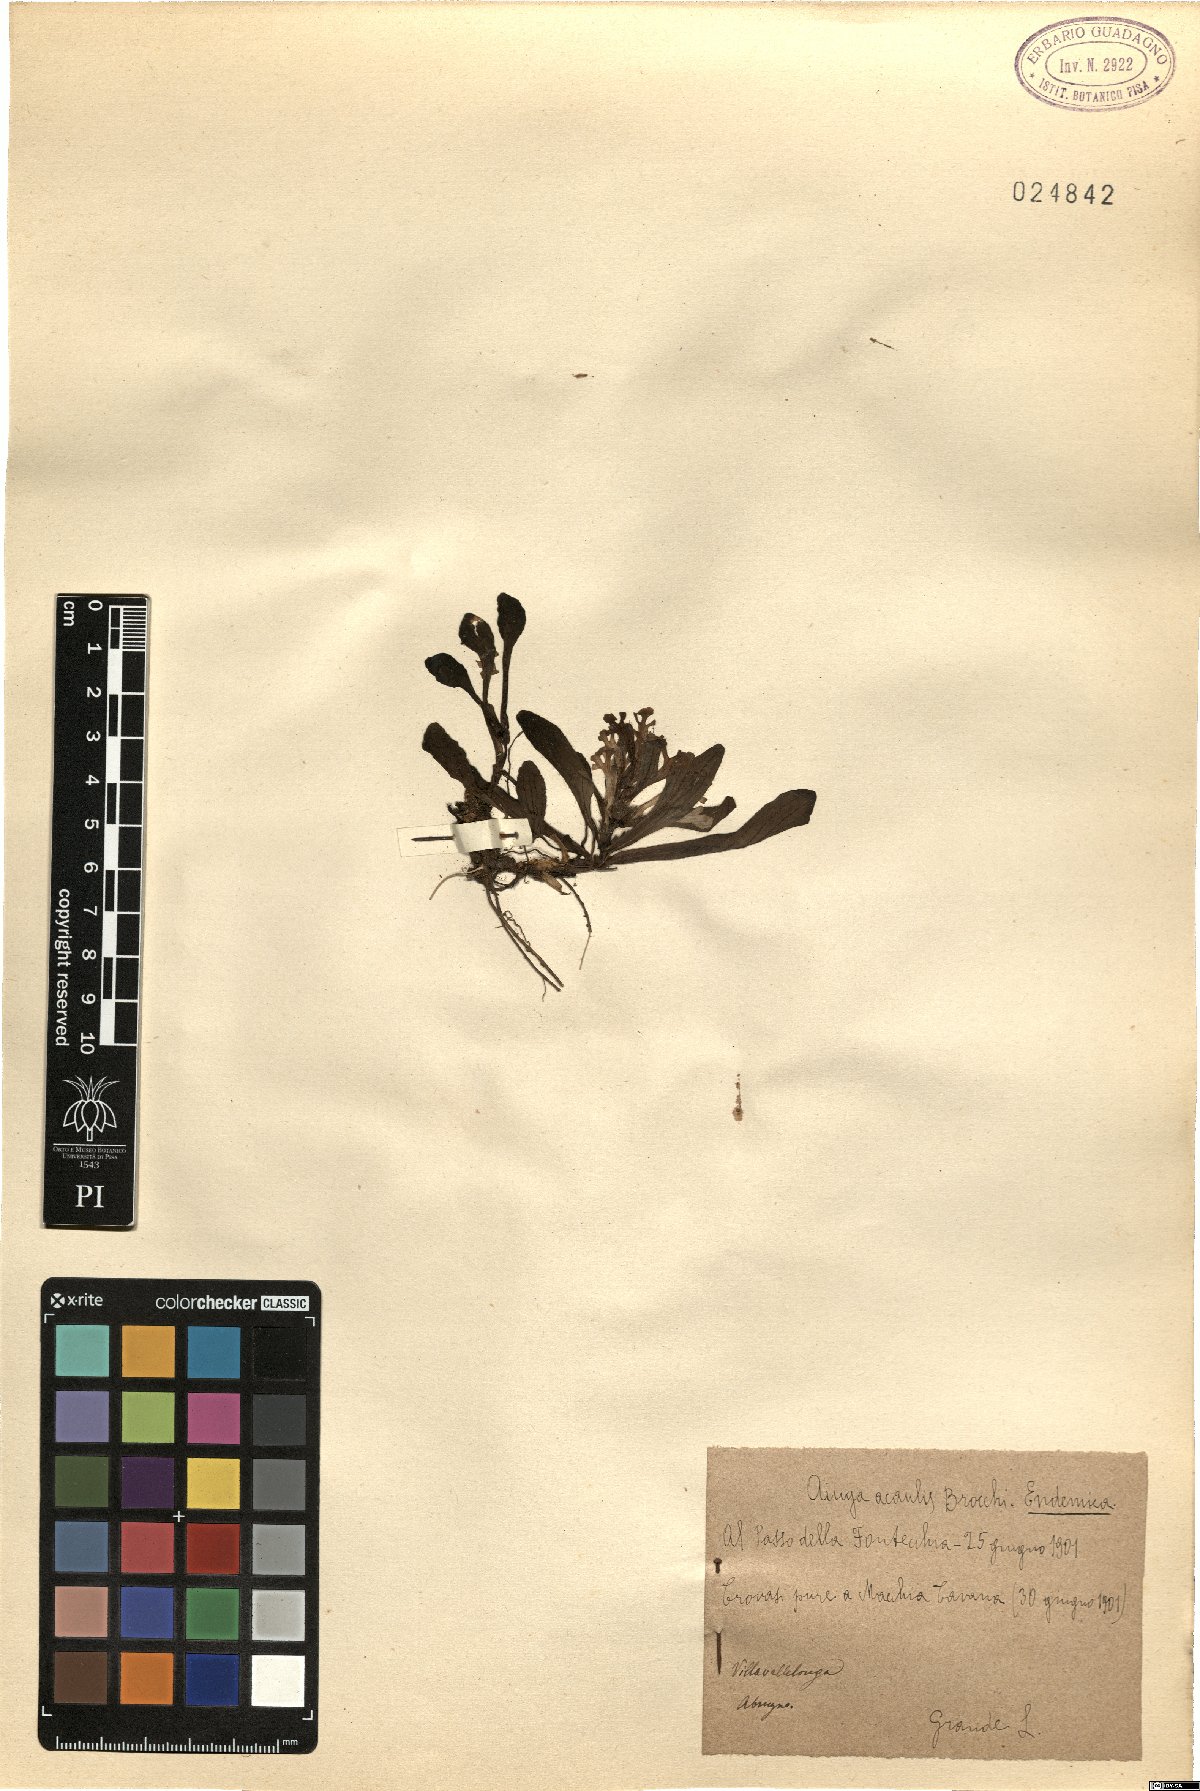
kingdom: Plantae
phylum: Tracheophyta
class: Magnoliopsida
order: Lamiales
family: Lamiaceae
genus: Ajuga
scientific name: Ajuga tenorei
